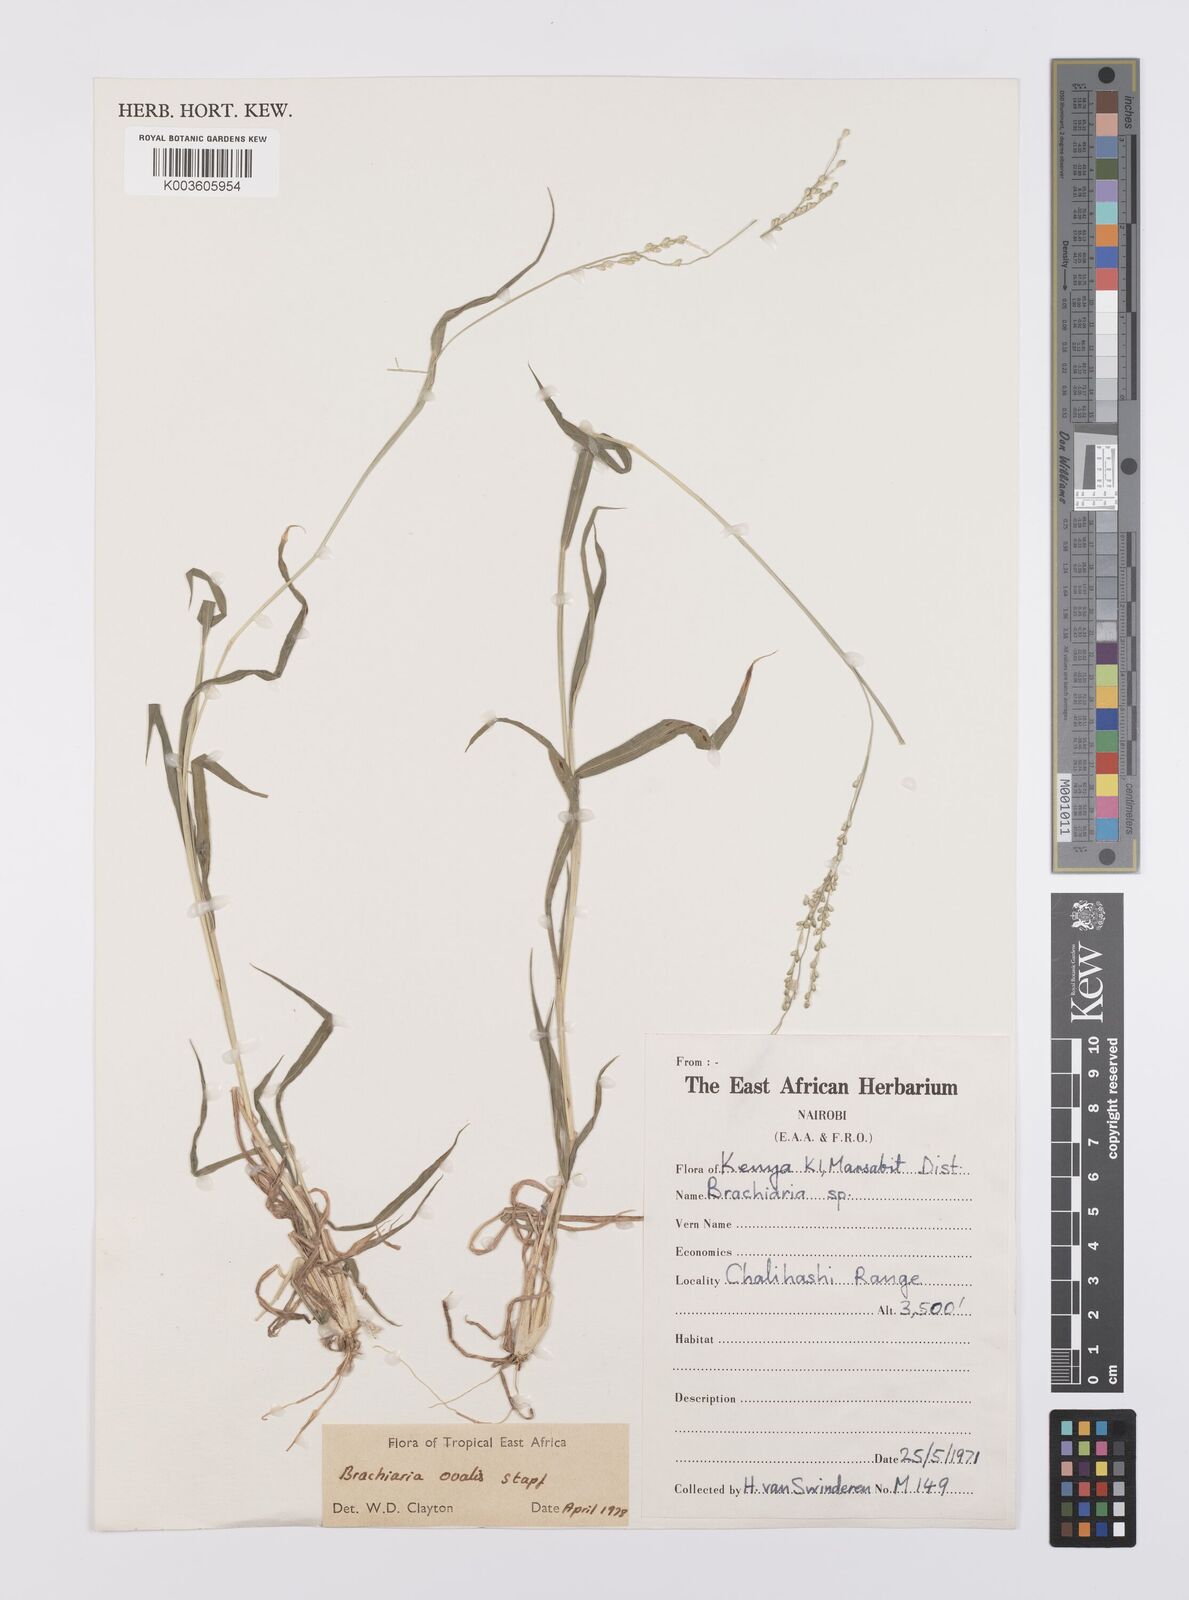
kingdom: Plantae
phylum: Tracheophyta
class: Liliopsida
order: Poales
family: Poaceae
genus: Urochloa
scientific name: Urochloa ovalis
